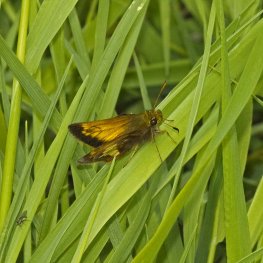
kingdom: Animalia
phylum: Arthropoda
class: Insecta
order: Lepidoptera
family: Hesperiidae
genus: Lon
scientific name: Lon hobomok
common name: Hobomok Skipper
